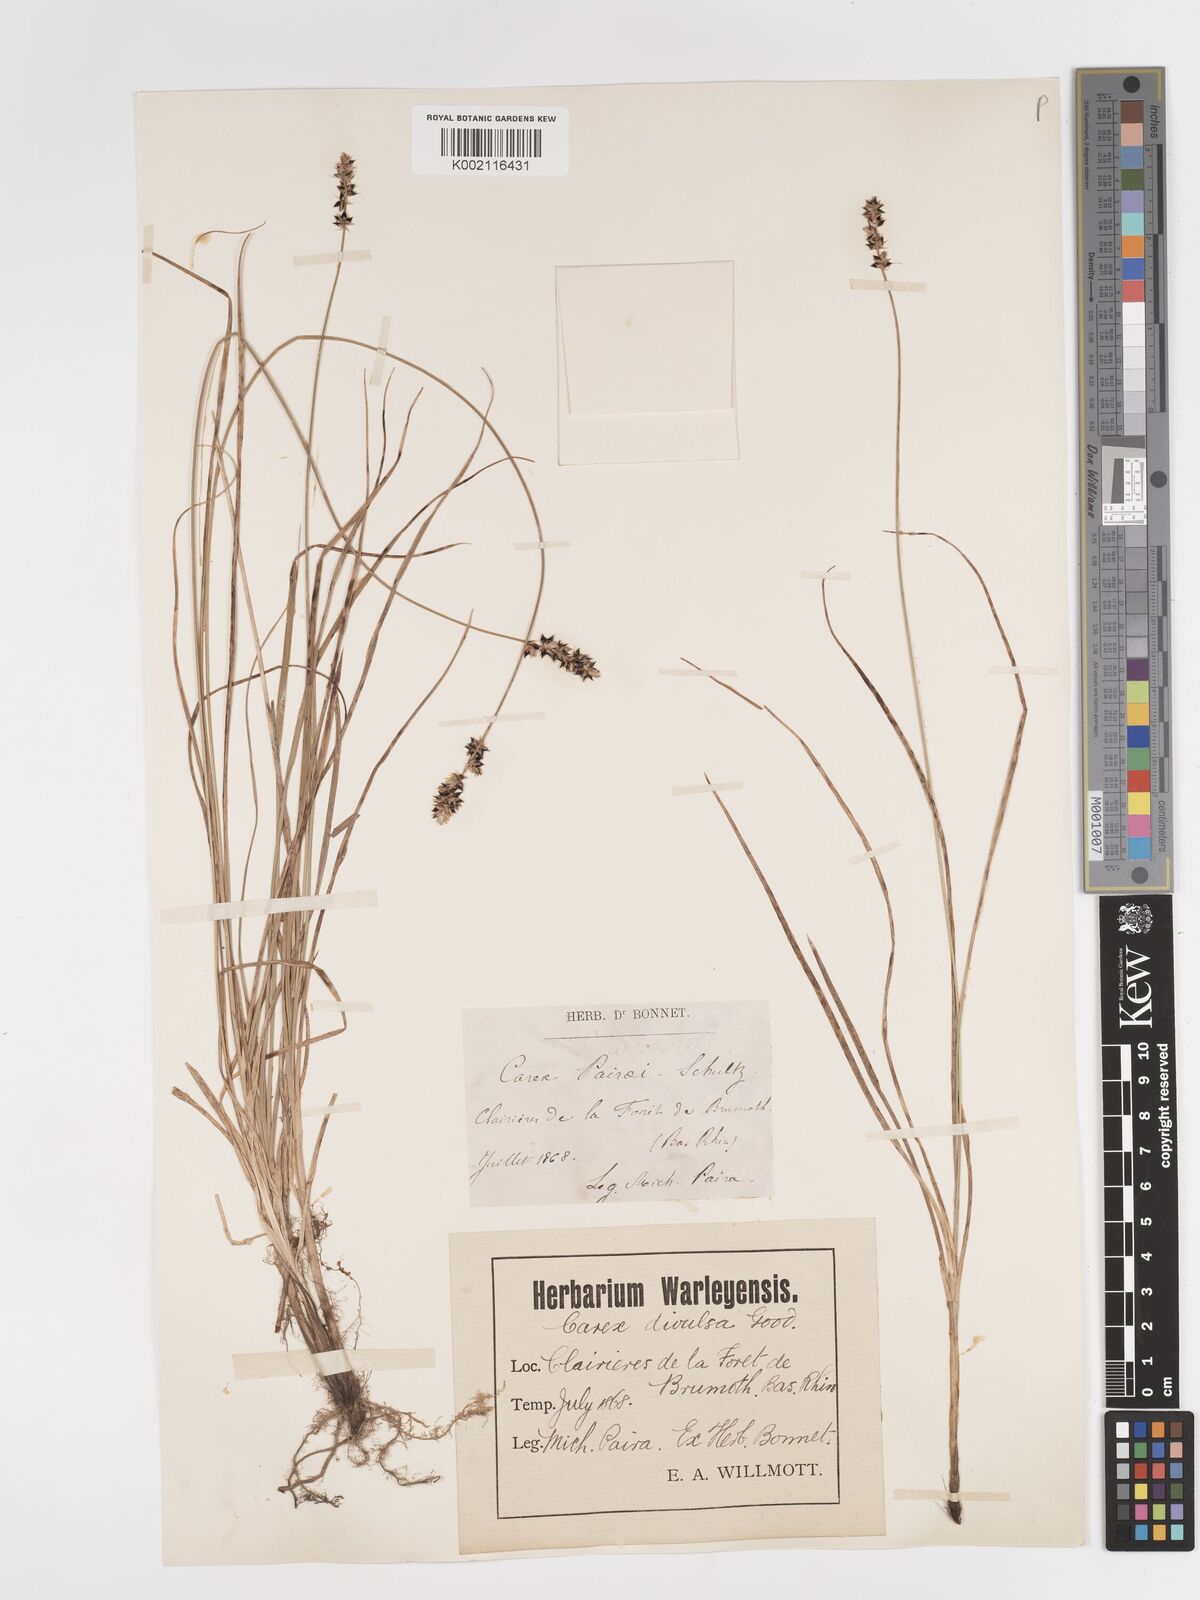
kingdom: Plantae
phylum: Tracheophyta
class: Liliopsida
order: Poales
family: Cyperaceae
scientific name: Cyperaceae
